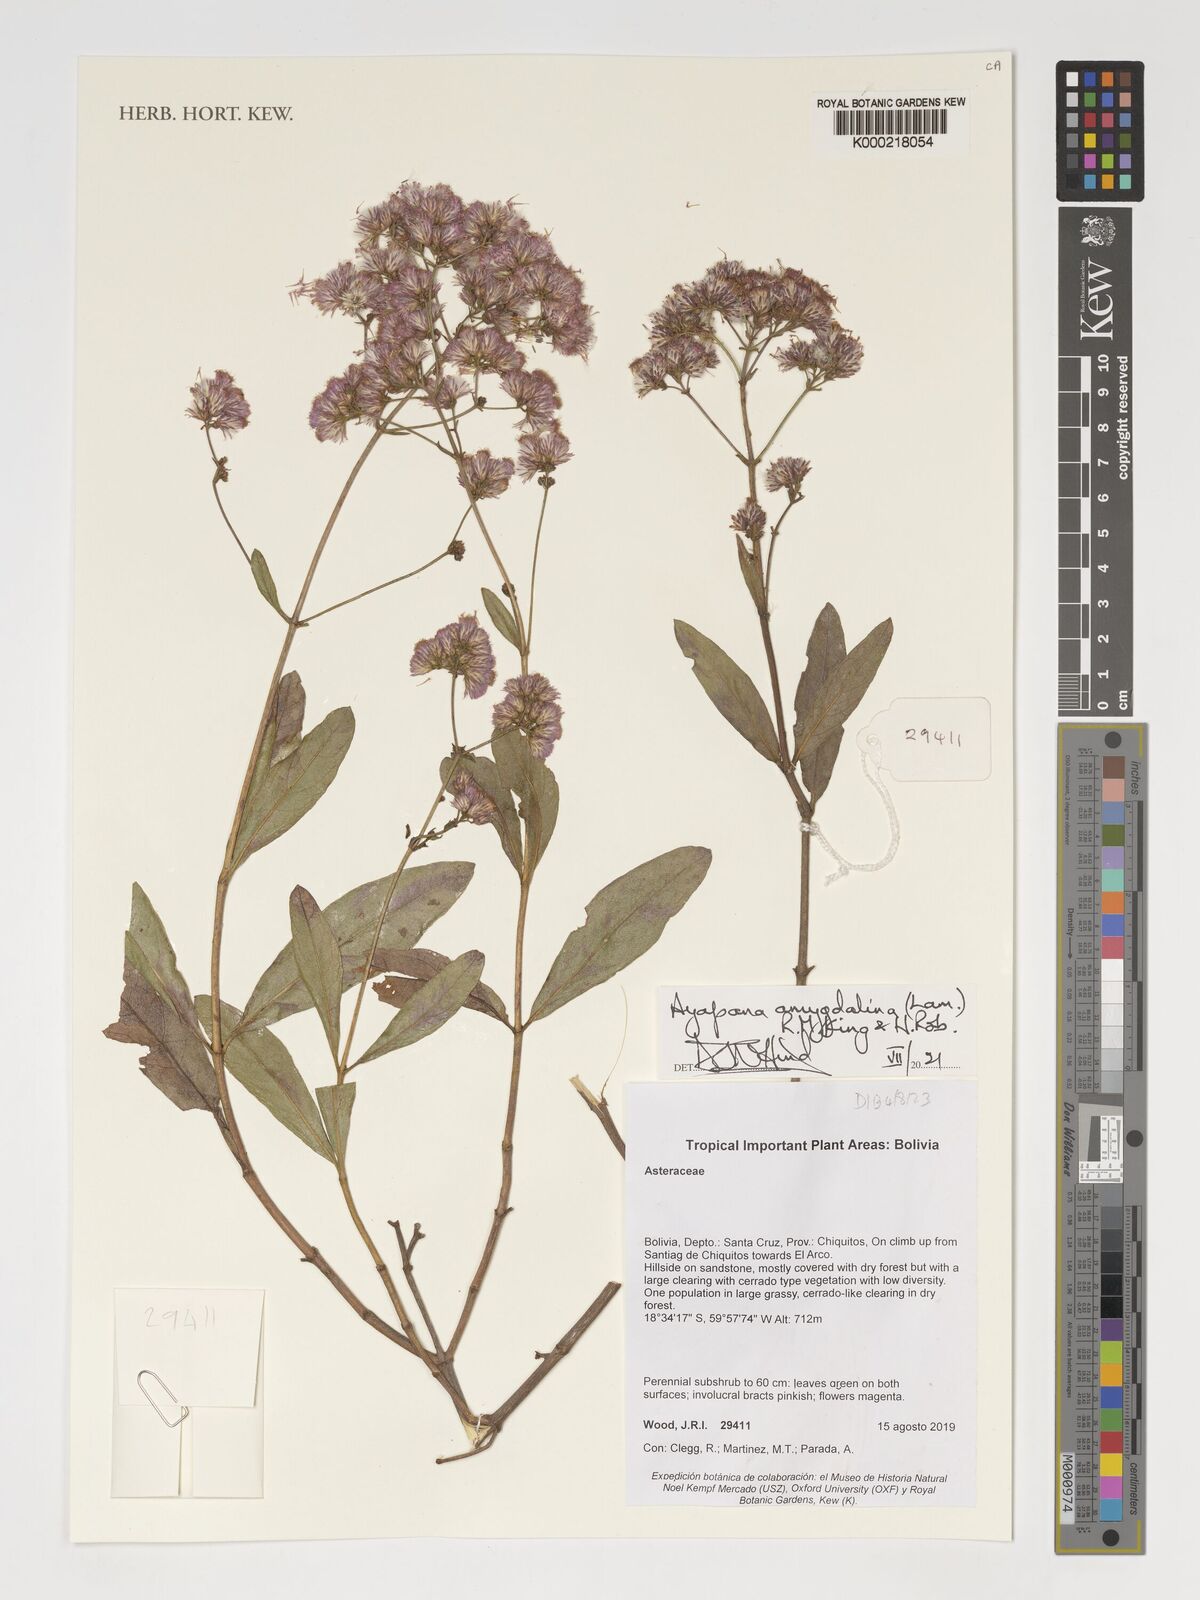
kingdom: Plantae
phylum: Tracheophyta
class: Magnoliopsida
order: Asterales
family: Asteraceae
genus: Ayapana
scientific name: Ayapana amygdalina
